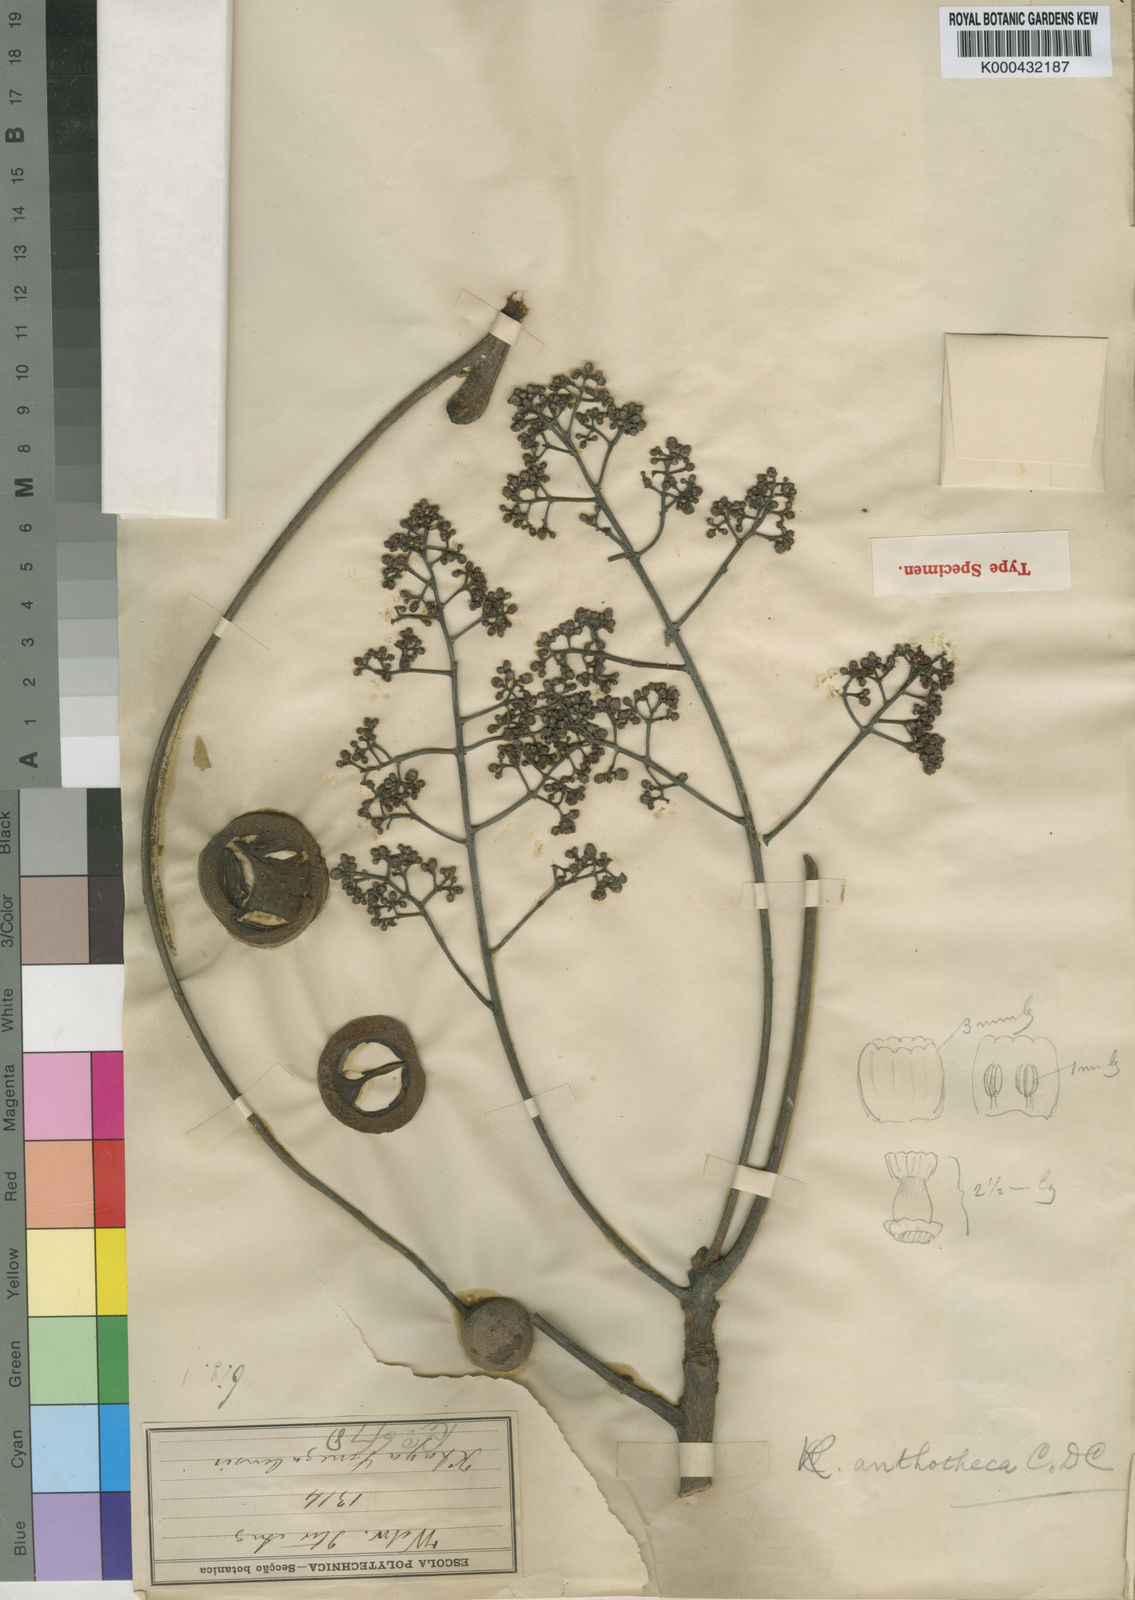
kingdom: Plantae
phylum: Tracheophyta
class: Magnoliopsida
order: Sapindales
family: Meliaceae
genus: Khaya
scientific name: Khaya anthotheca
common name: Nyasaland mahogany
